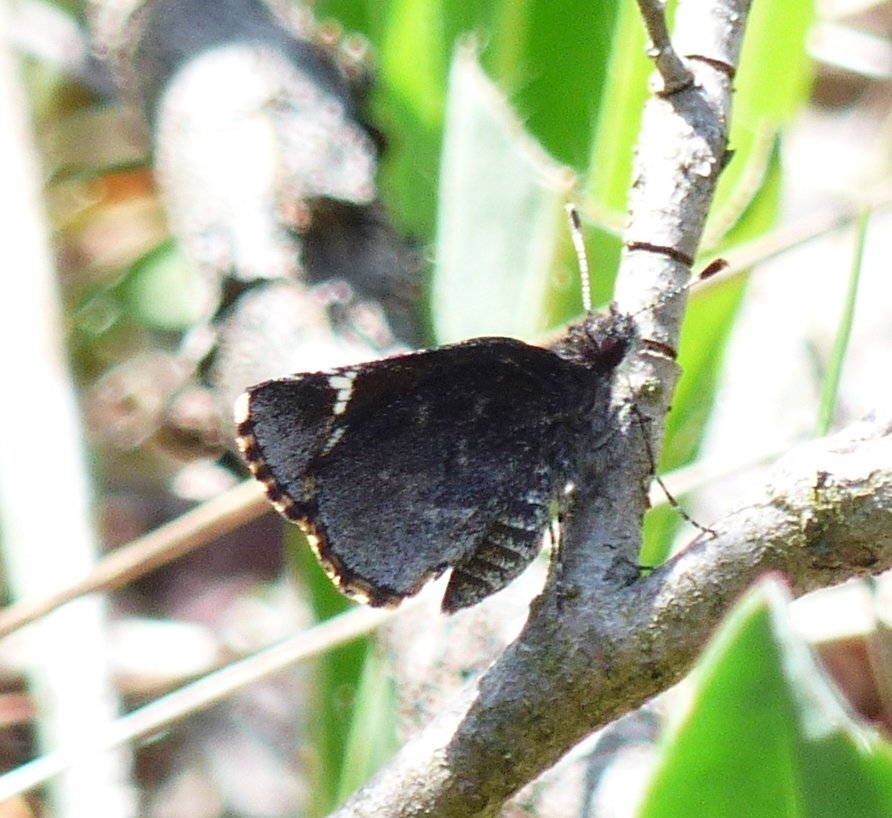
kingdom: Animalia
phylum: Arthropoda
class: Insecta
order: Lepidoptera
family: Hesperiidae
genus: Mastor
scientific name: Mastor vialis
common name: Common Roadside-Skipper
